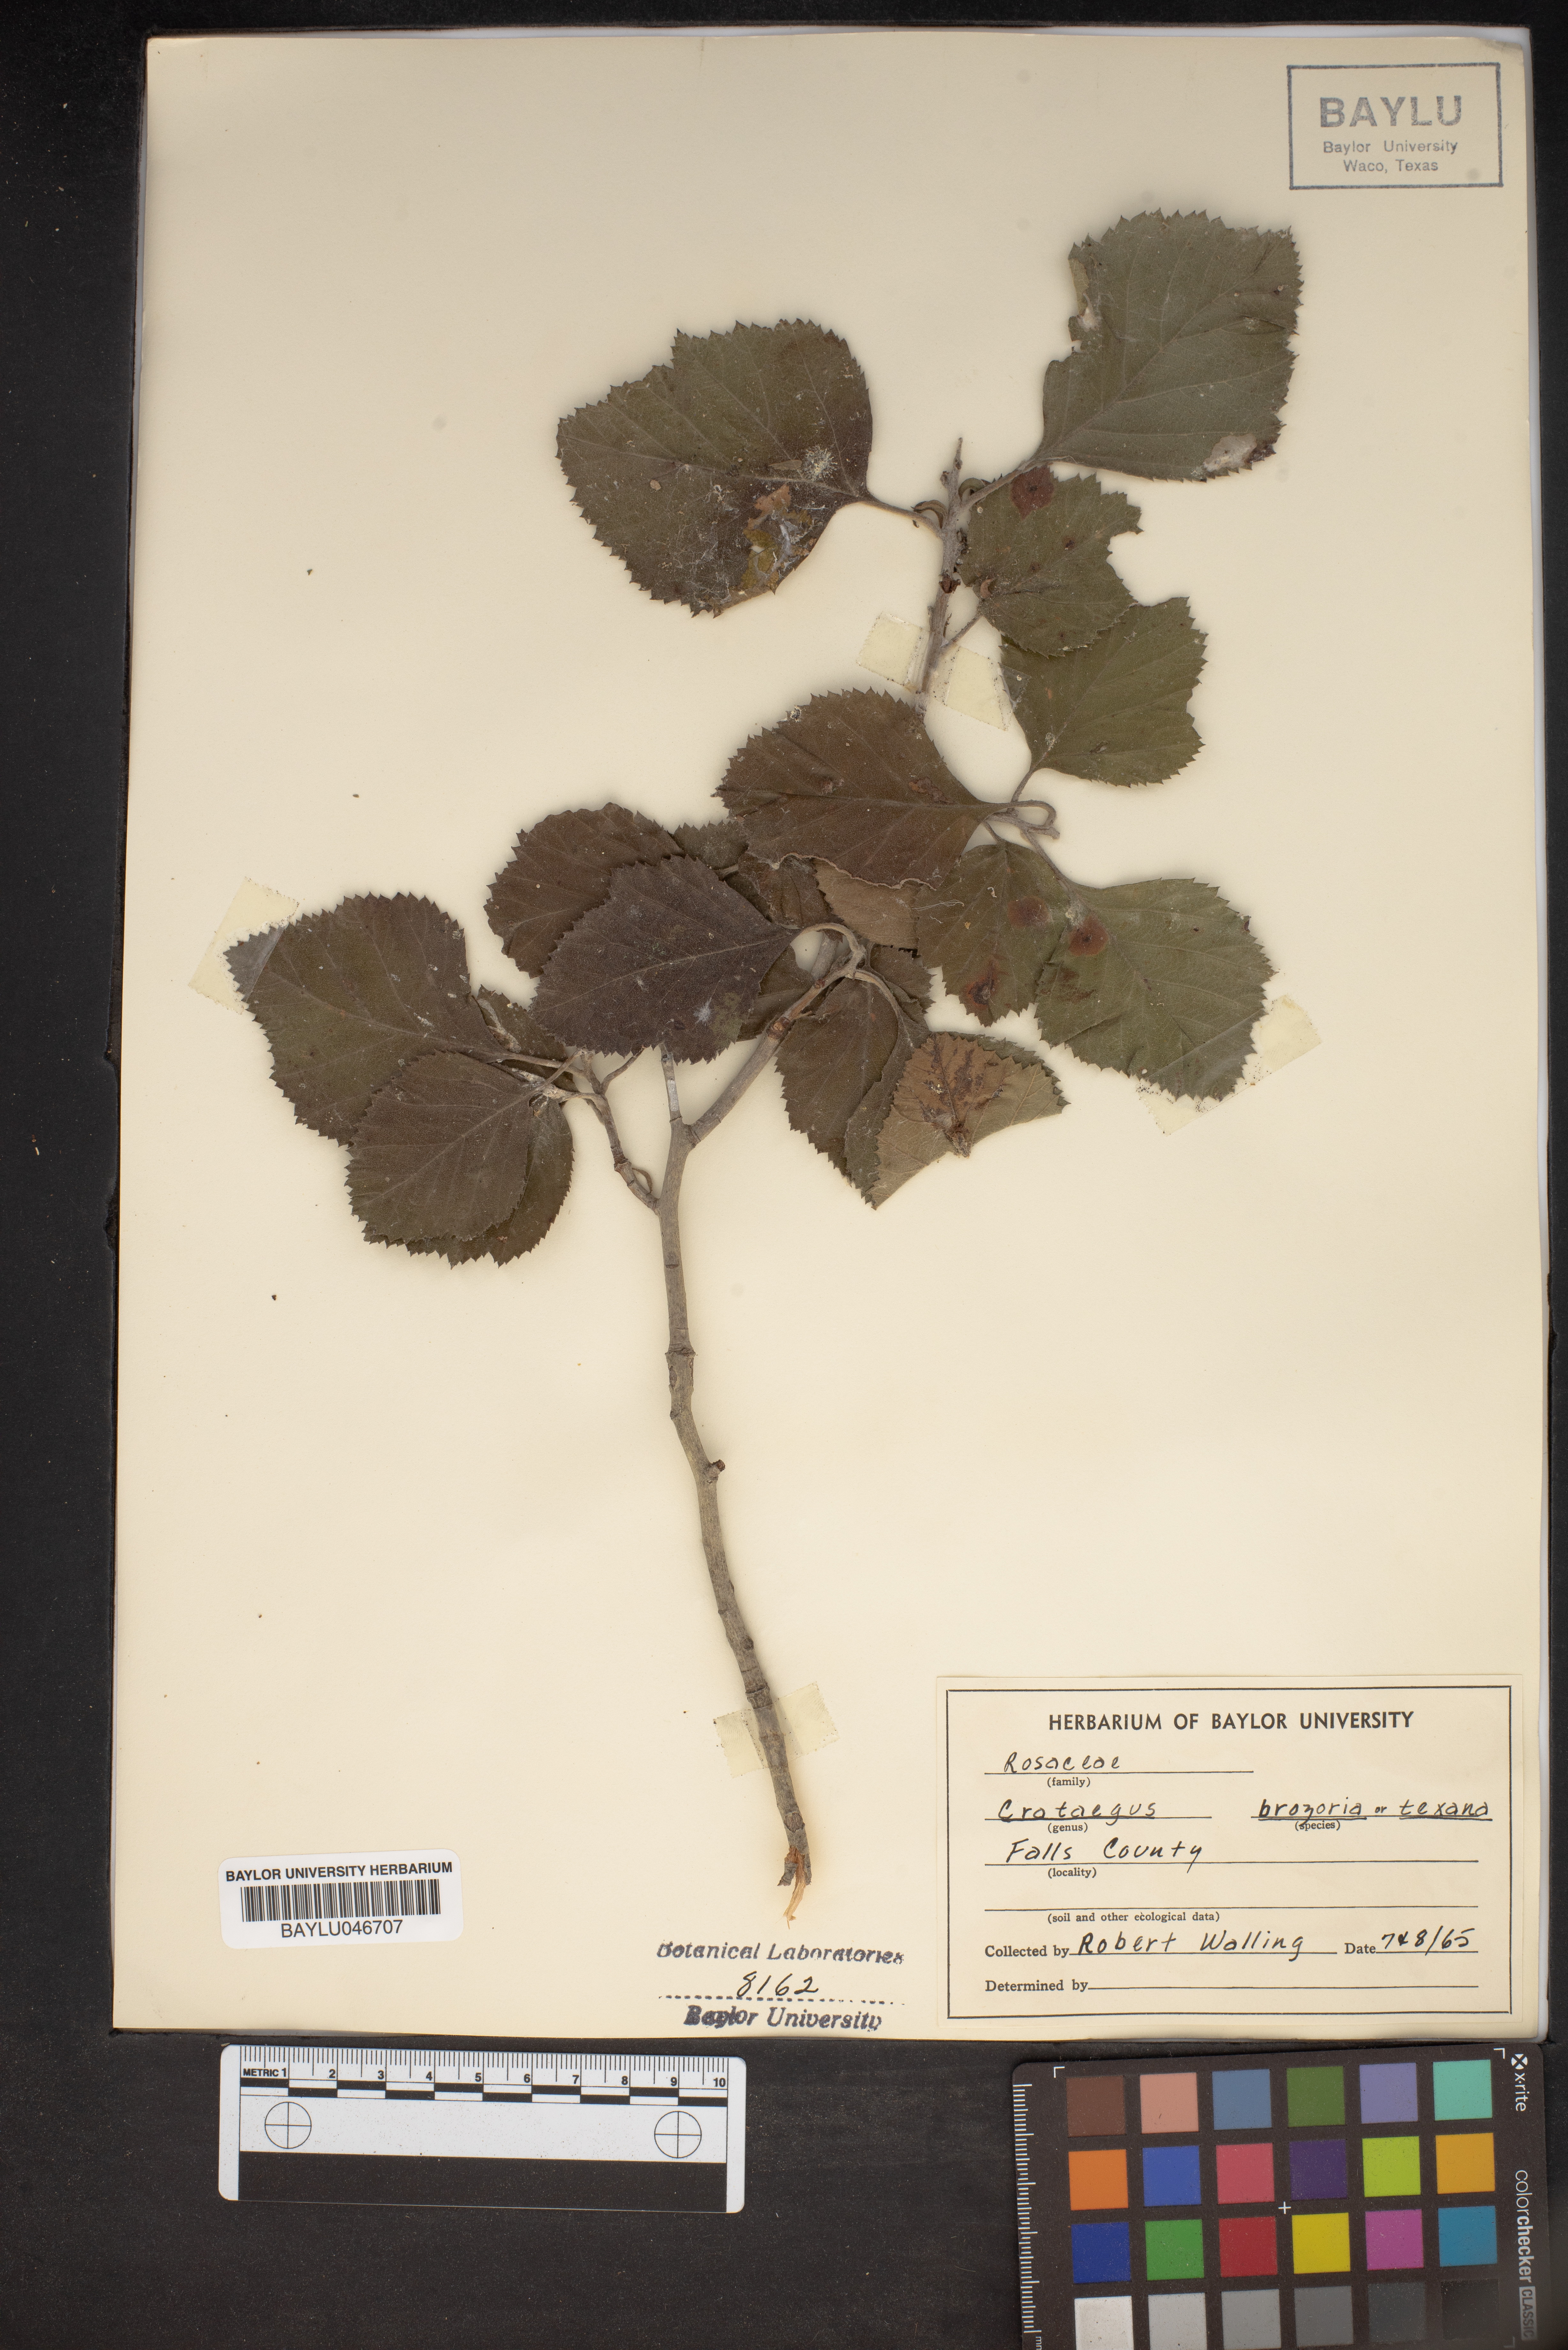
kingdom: Plantae
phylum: Tracheophyta
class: Magnoliopsida
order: Rosales
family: Rosaceae
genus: Crataegus
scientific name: Crataegus brazoria
